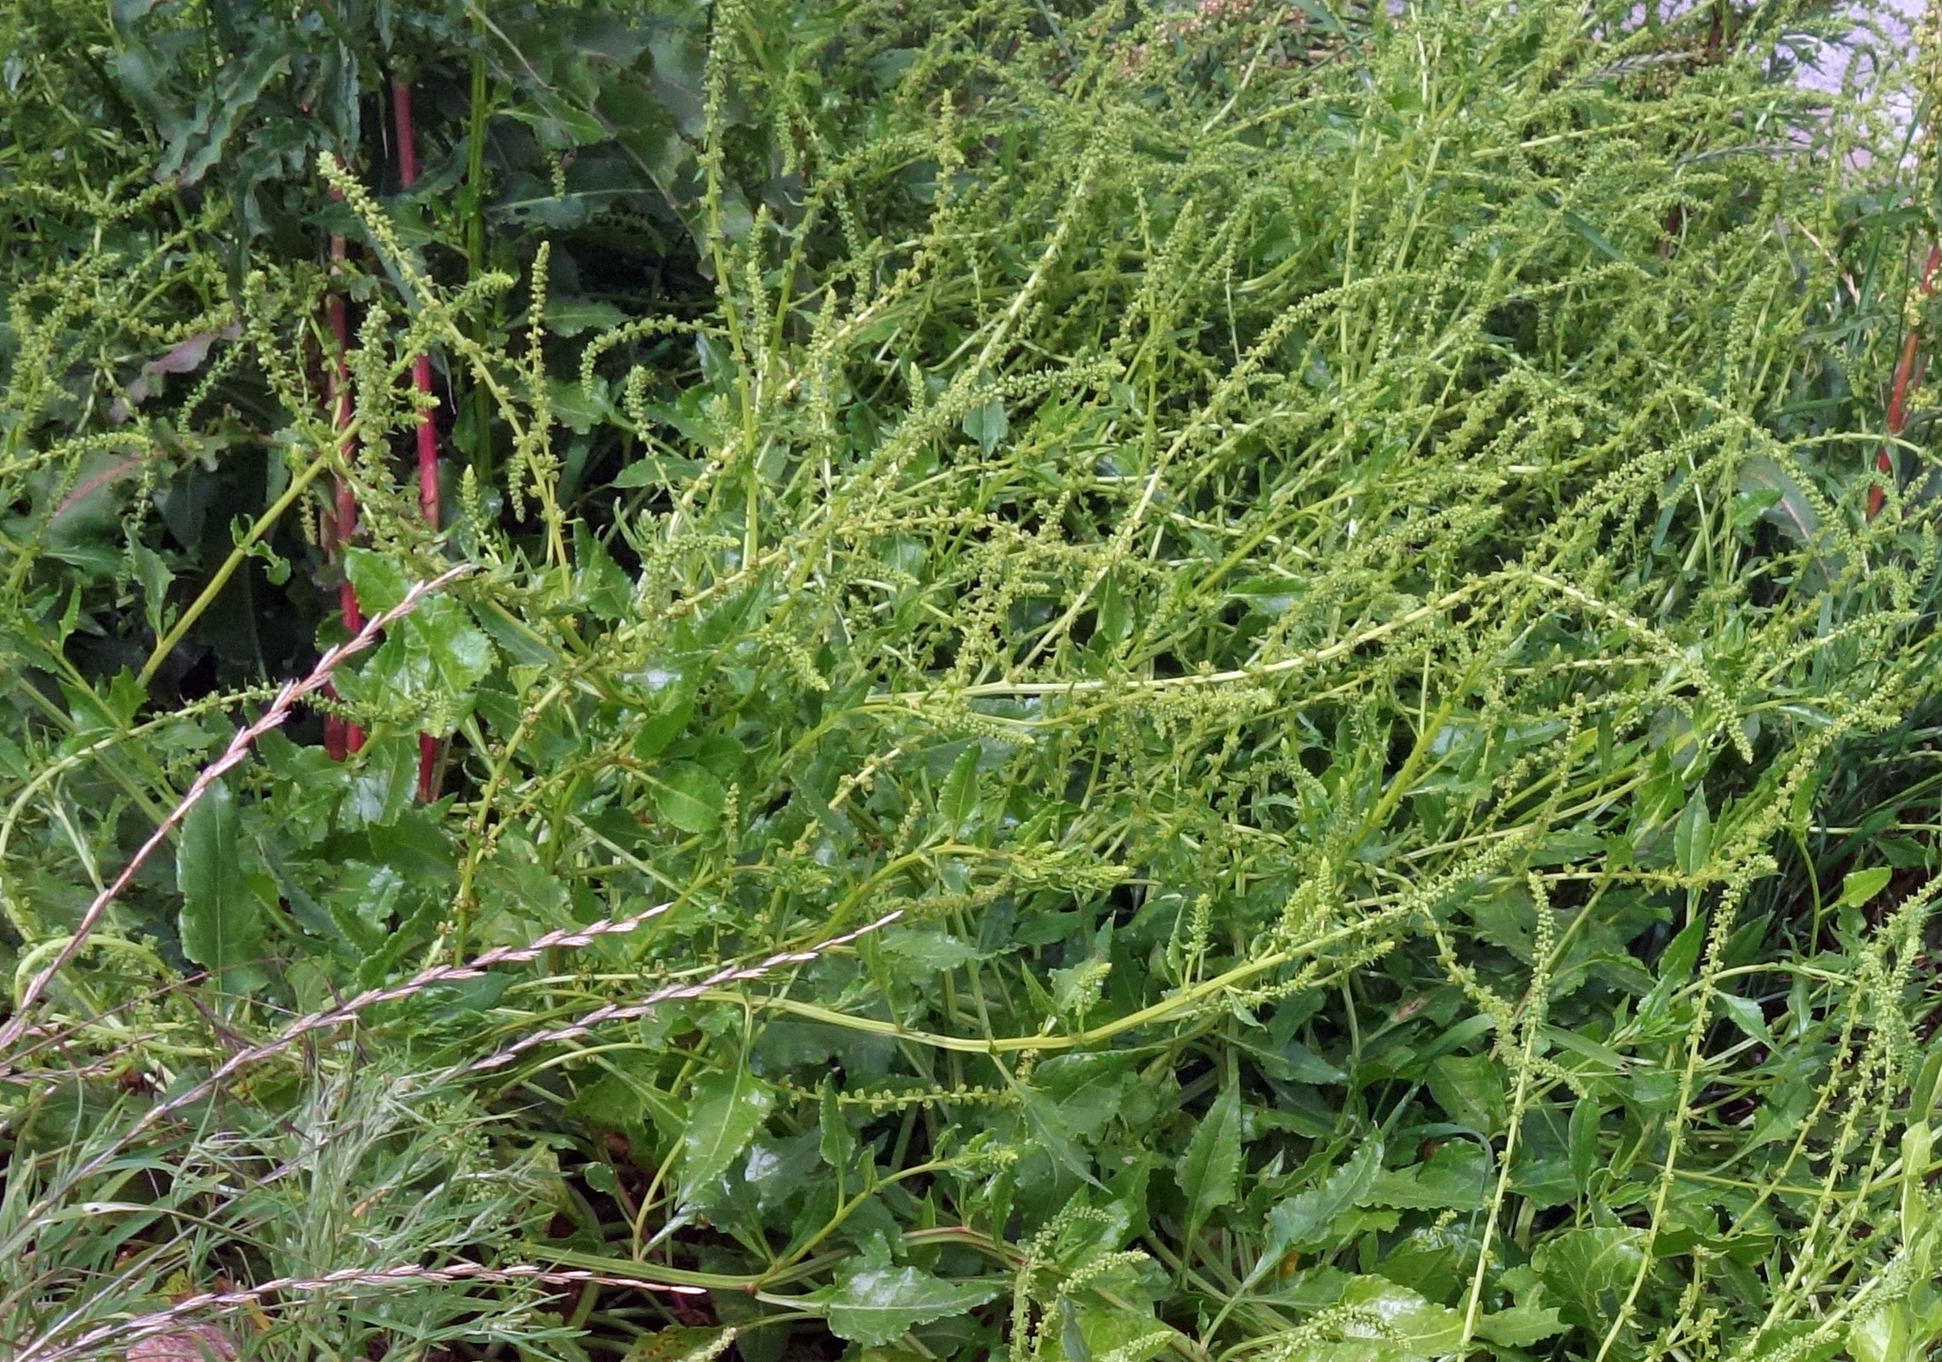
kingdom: Plantae
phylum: Tracheophyta
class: Magnoliopsida
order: Caryophyllales
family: Amaranthaceae
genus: Beta
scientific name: Beta maritima
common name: Strand-bede
